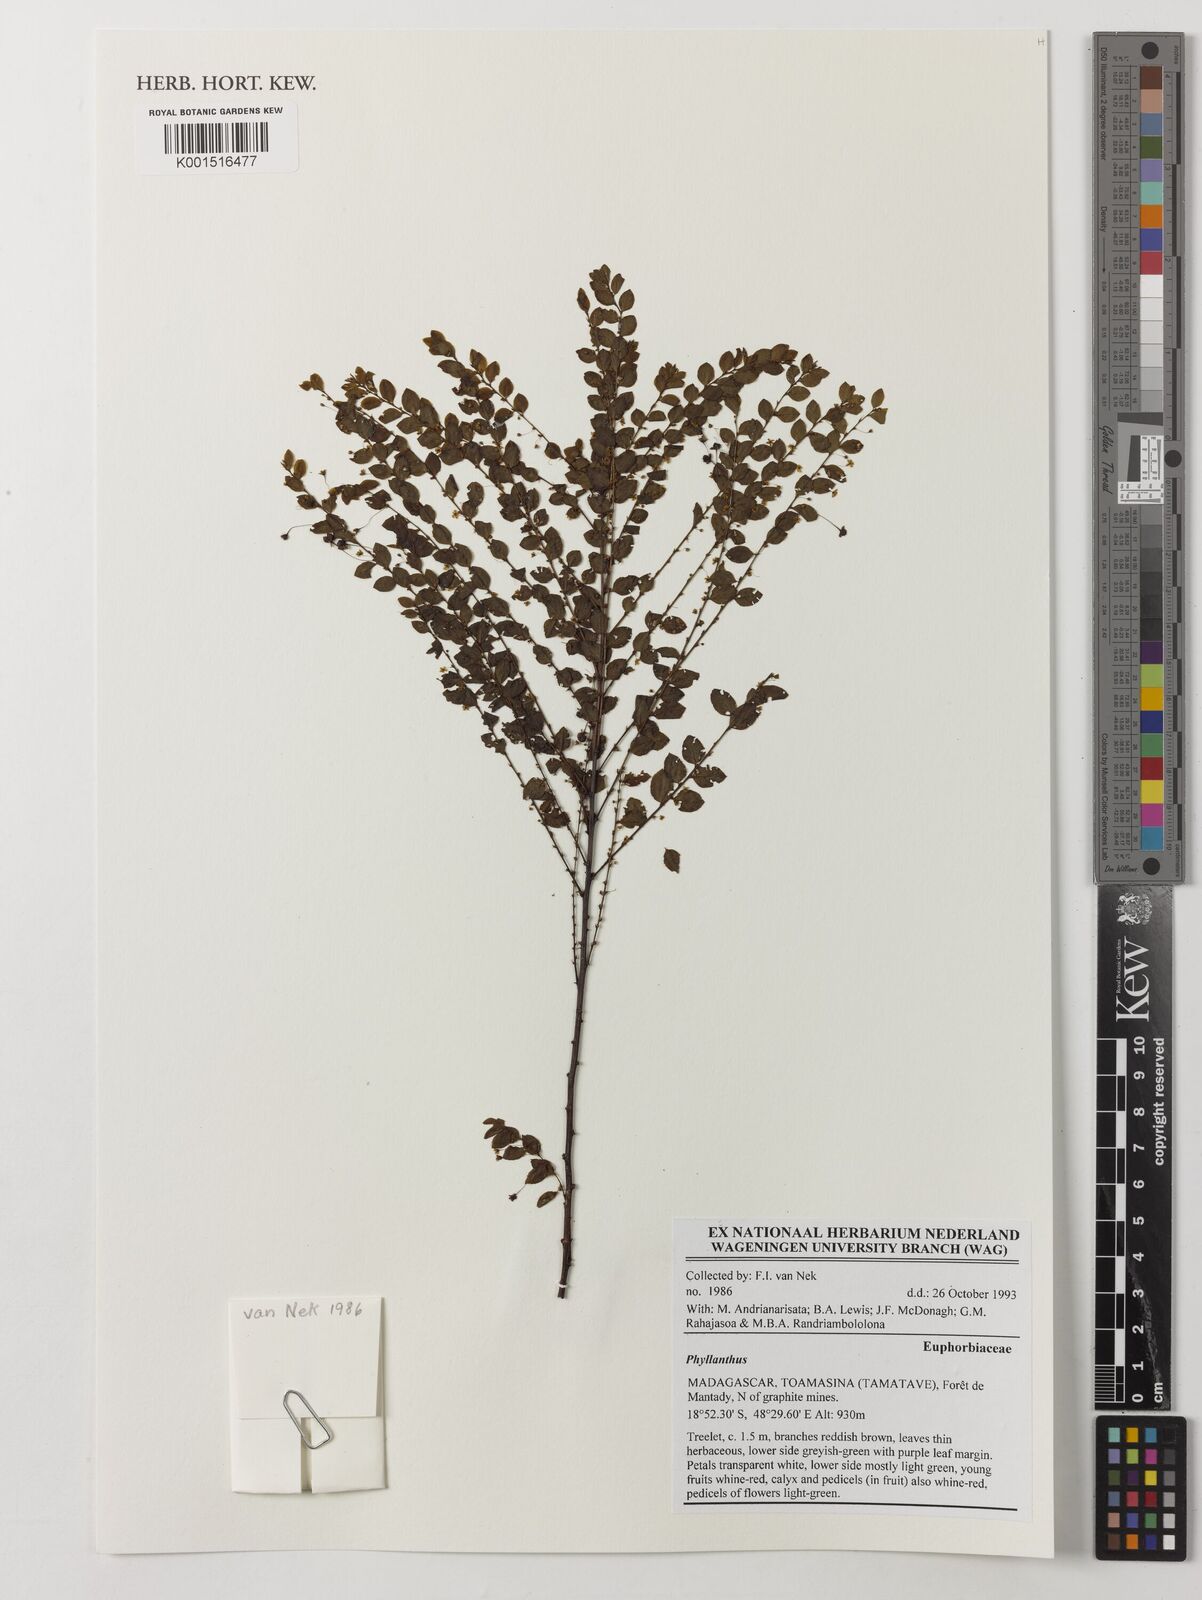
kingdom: Plantae
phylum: Tracheophyta
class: Magnoliopsida
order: Malpighiales
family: Phyllanthaceae
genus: Phyllanthus
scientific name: Phyllanthus
